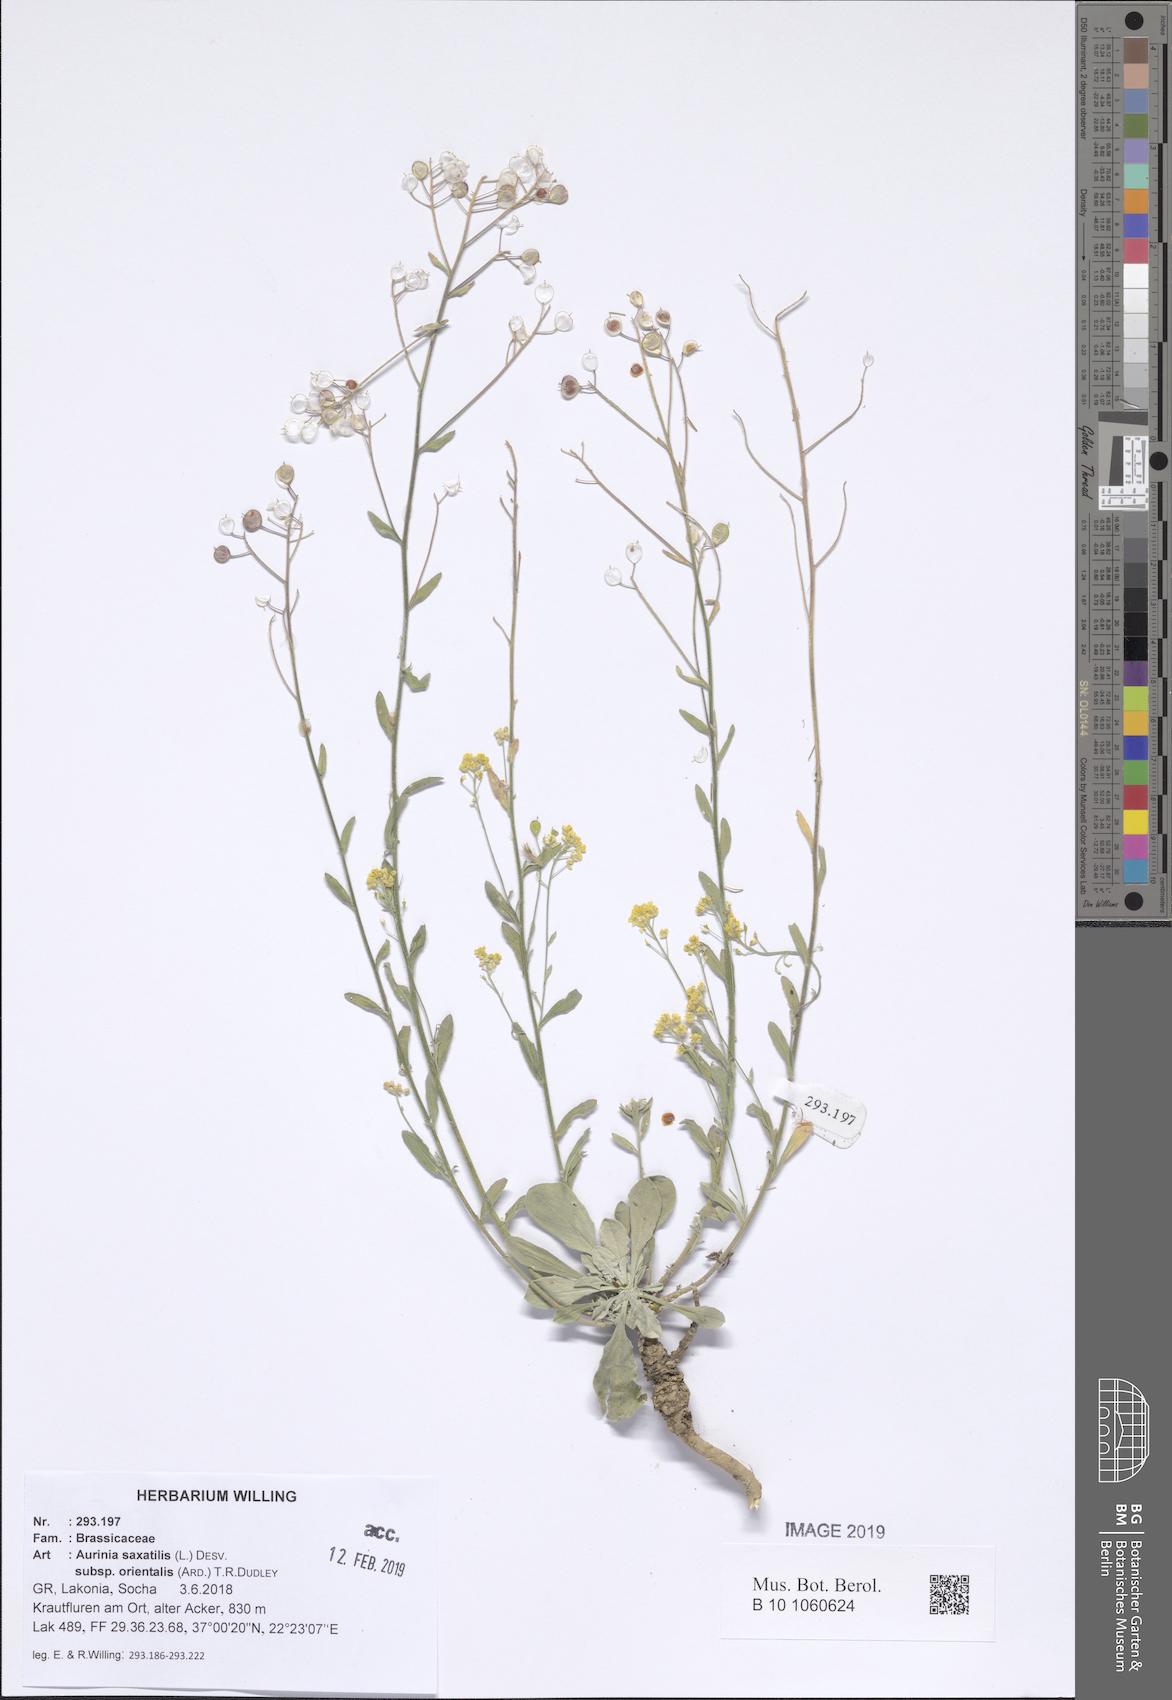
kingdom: Plantae
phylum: Tracheophyta
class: Magnoliopsida
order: Brassicales
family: Brassicaceae
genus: Aurinia
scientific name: Aurinia saxatilis
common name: Golden-tuft alyssum
